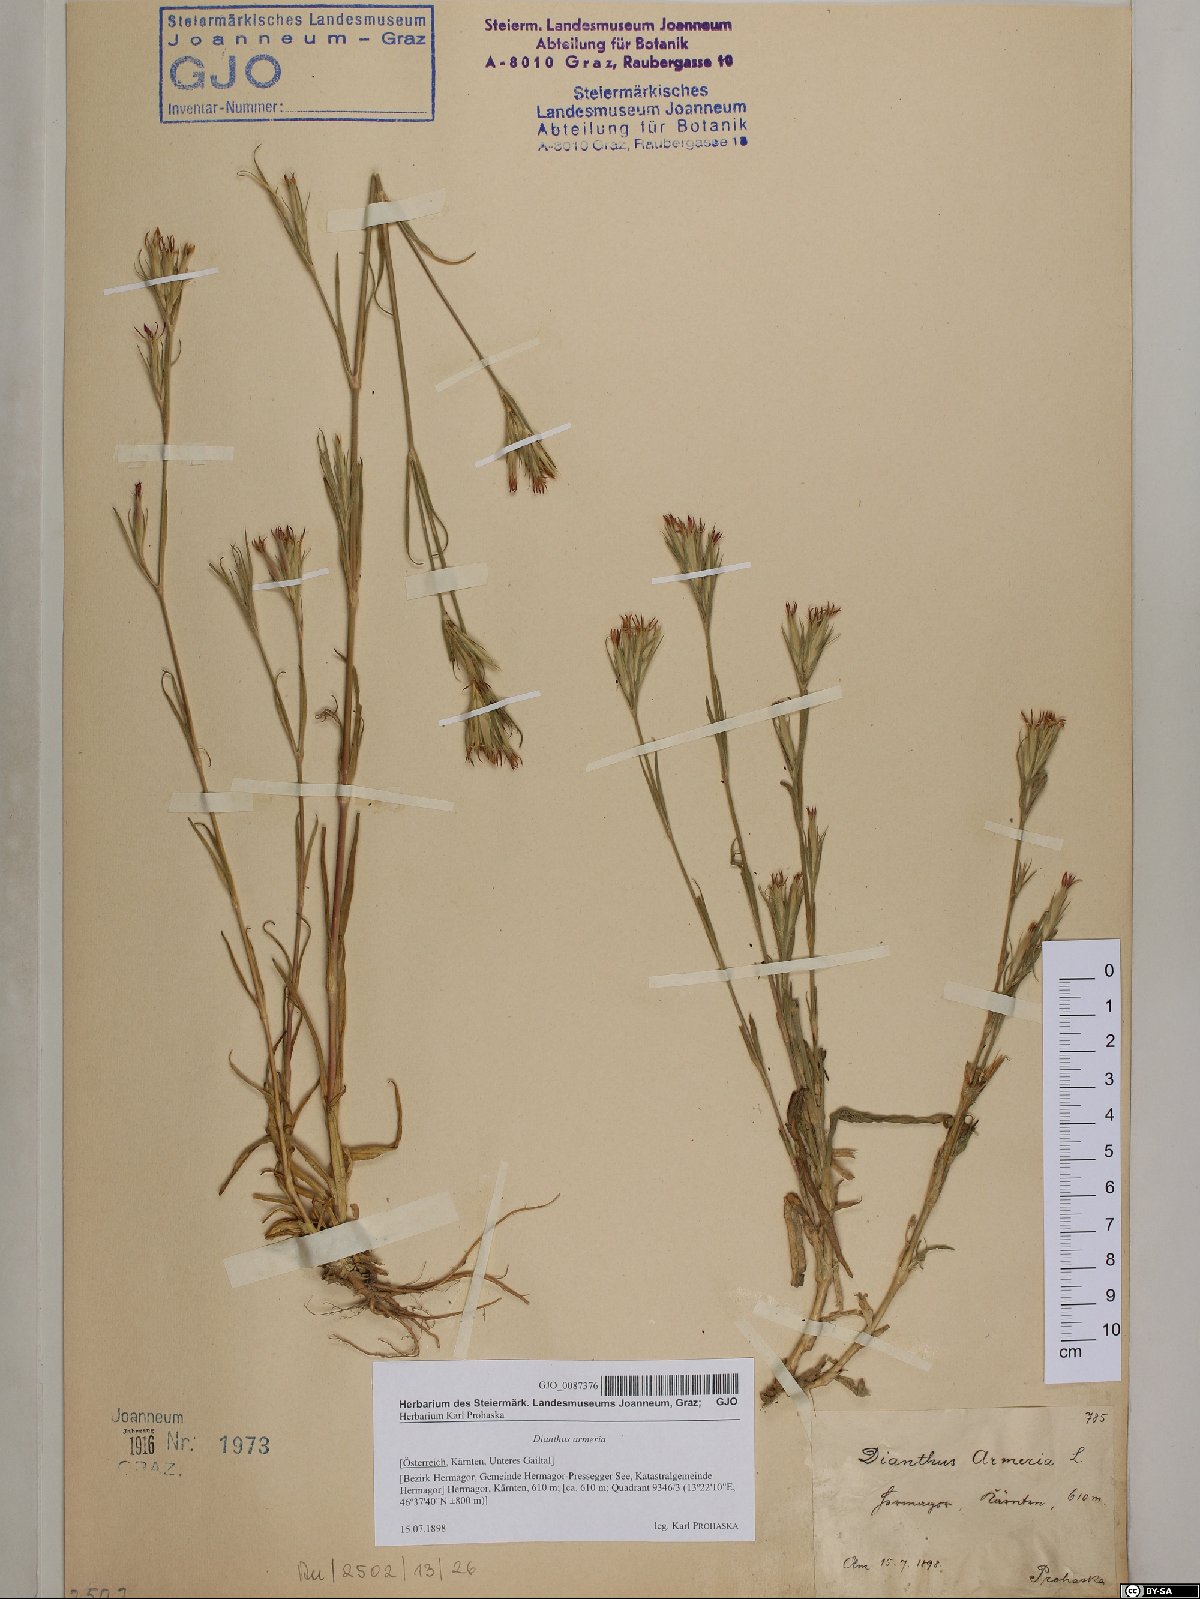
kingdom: Plantae
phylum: Tracheophyta
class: Magnoliopsida
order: Caryophyllales
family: Caryophyllaceae
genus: Dianthus
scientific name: Dianthus armeria
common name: Deptford pink
